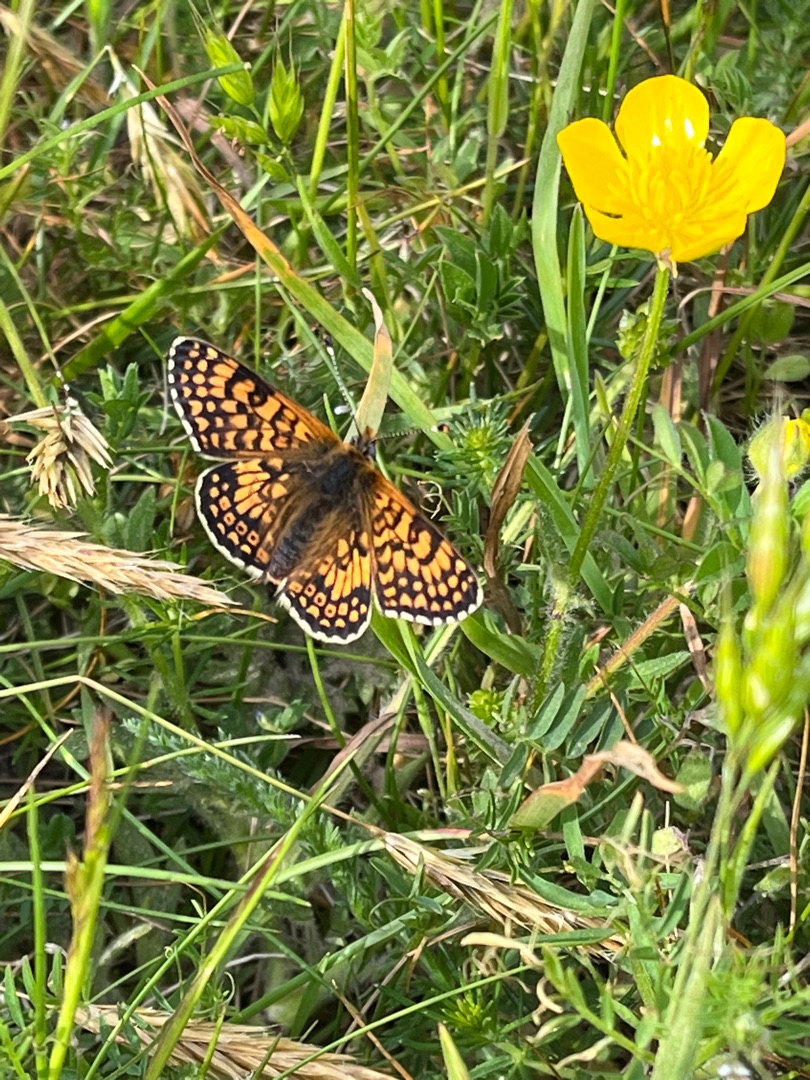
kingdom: Animalia
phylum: Arthropoda
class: Insecta
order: Lepidoptera
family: Nymphalidae
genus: Melitaea
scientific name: Melitaea cinxia
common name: Okkergul pletvinge
